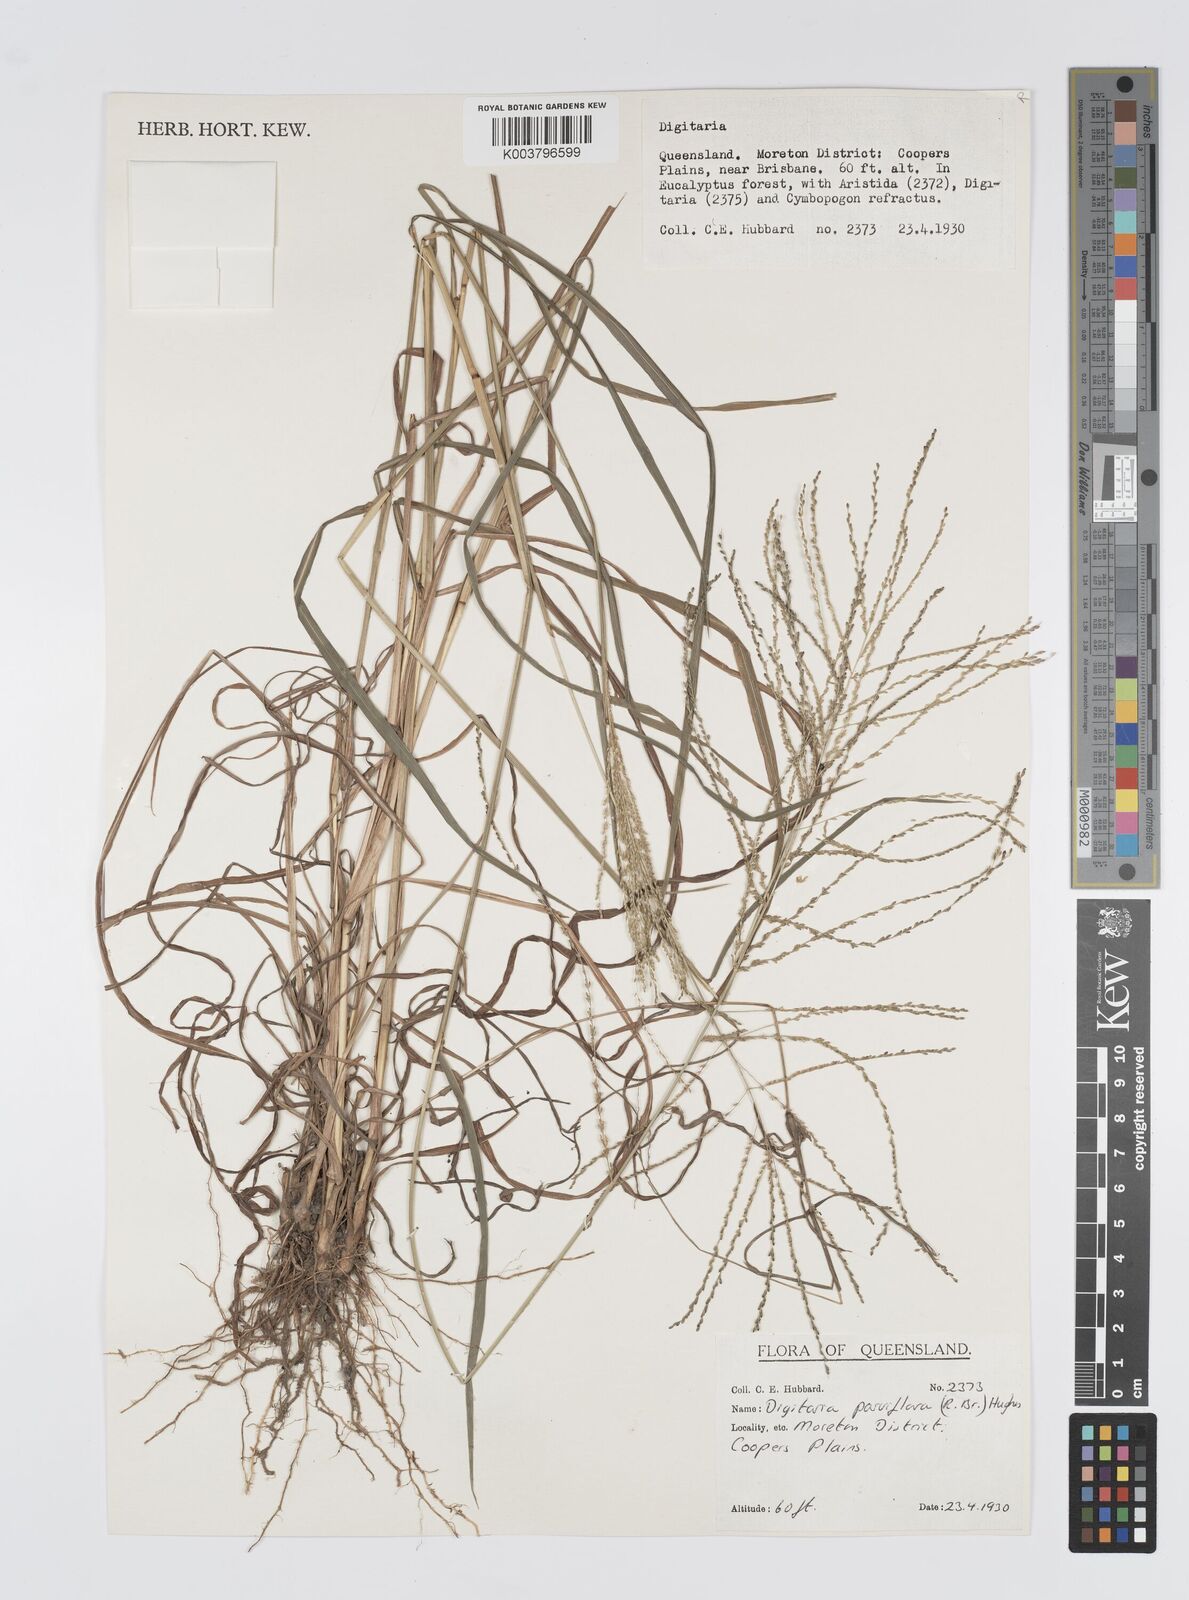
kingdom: Plantae
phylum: Tracheophyta
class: Liliopsida
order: Poales
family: Poaceae
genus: Digitaria
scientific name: Digitaria parviflora
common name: Small-flower finger grass
